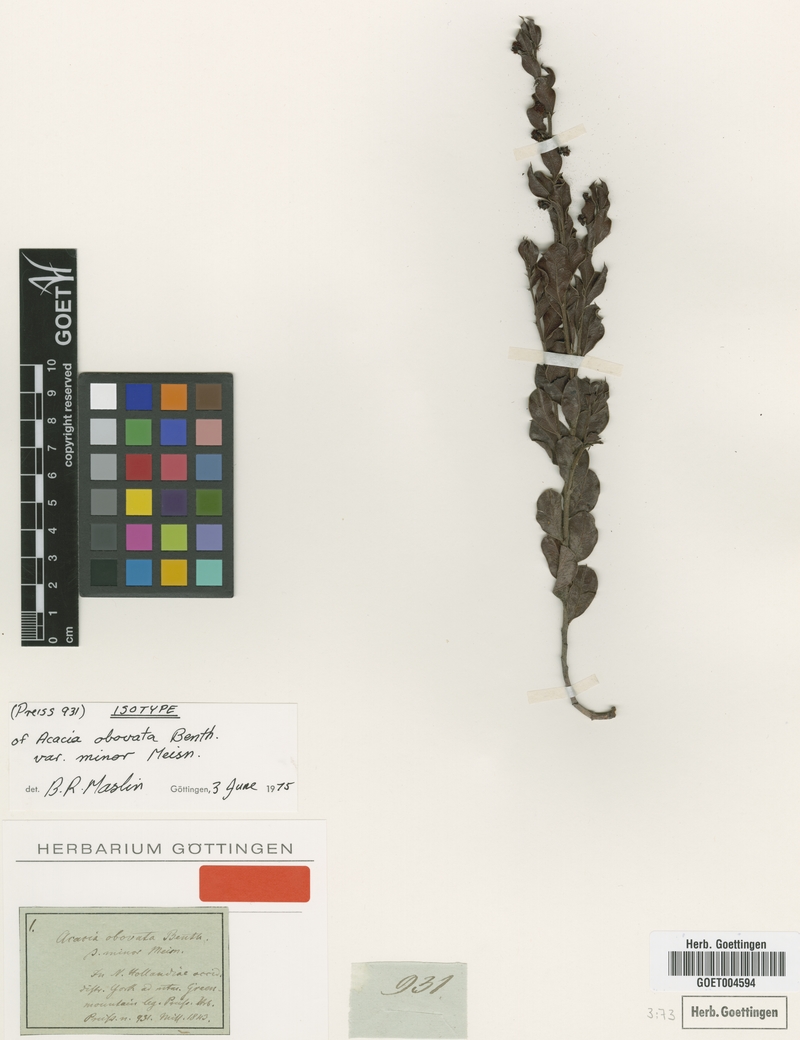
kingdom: Plantae
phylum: Tracheophyta
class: Magnoliopsida
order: Fabales
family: Fabaceae
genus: Acacia
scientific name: Acacia obovata
